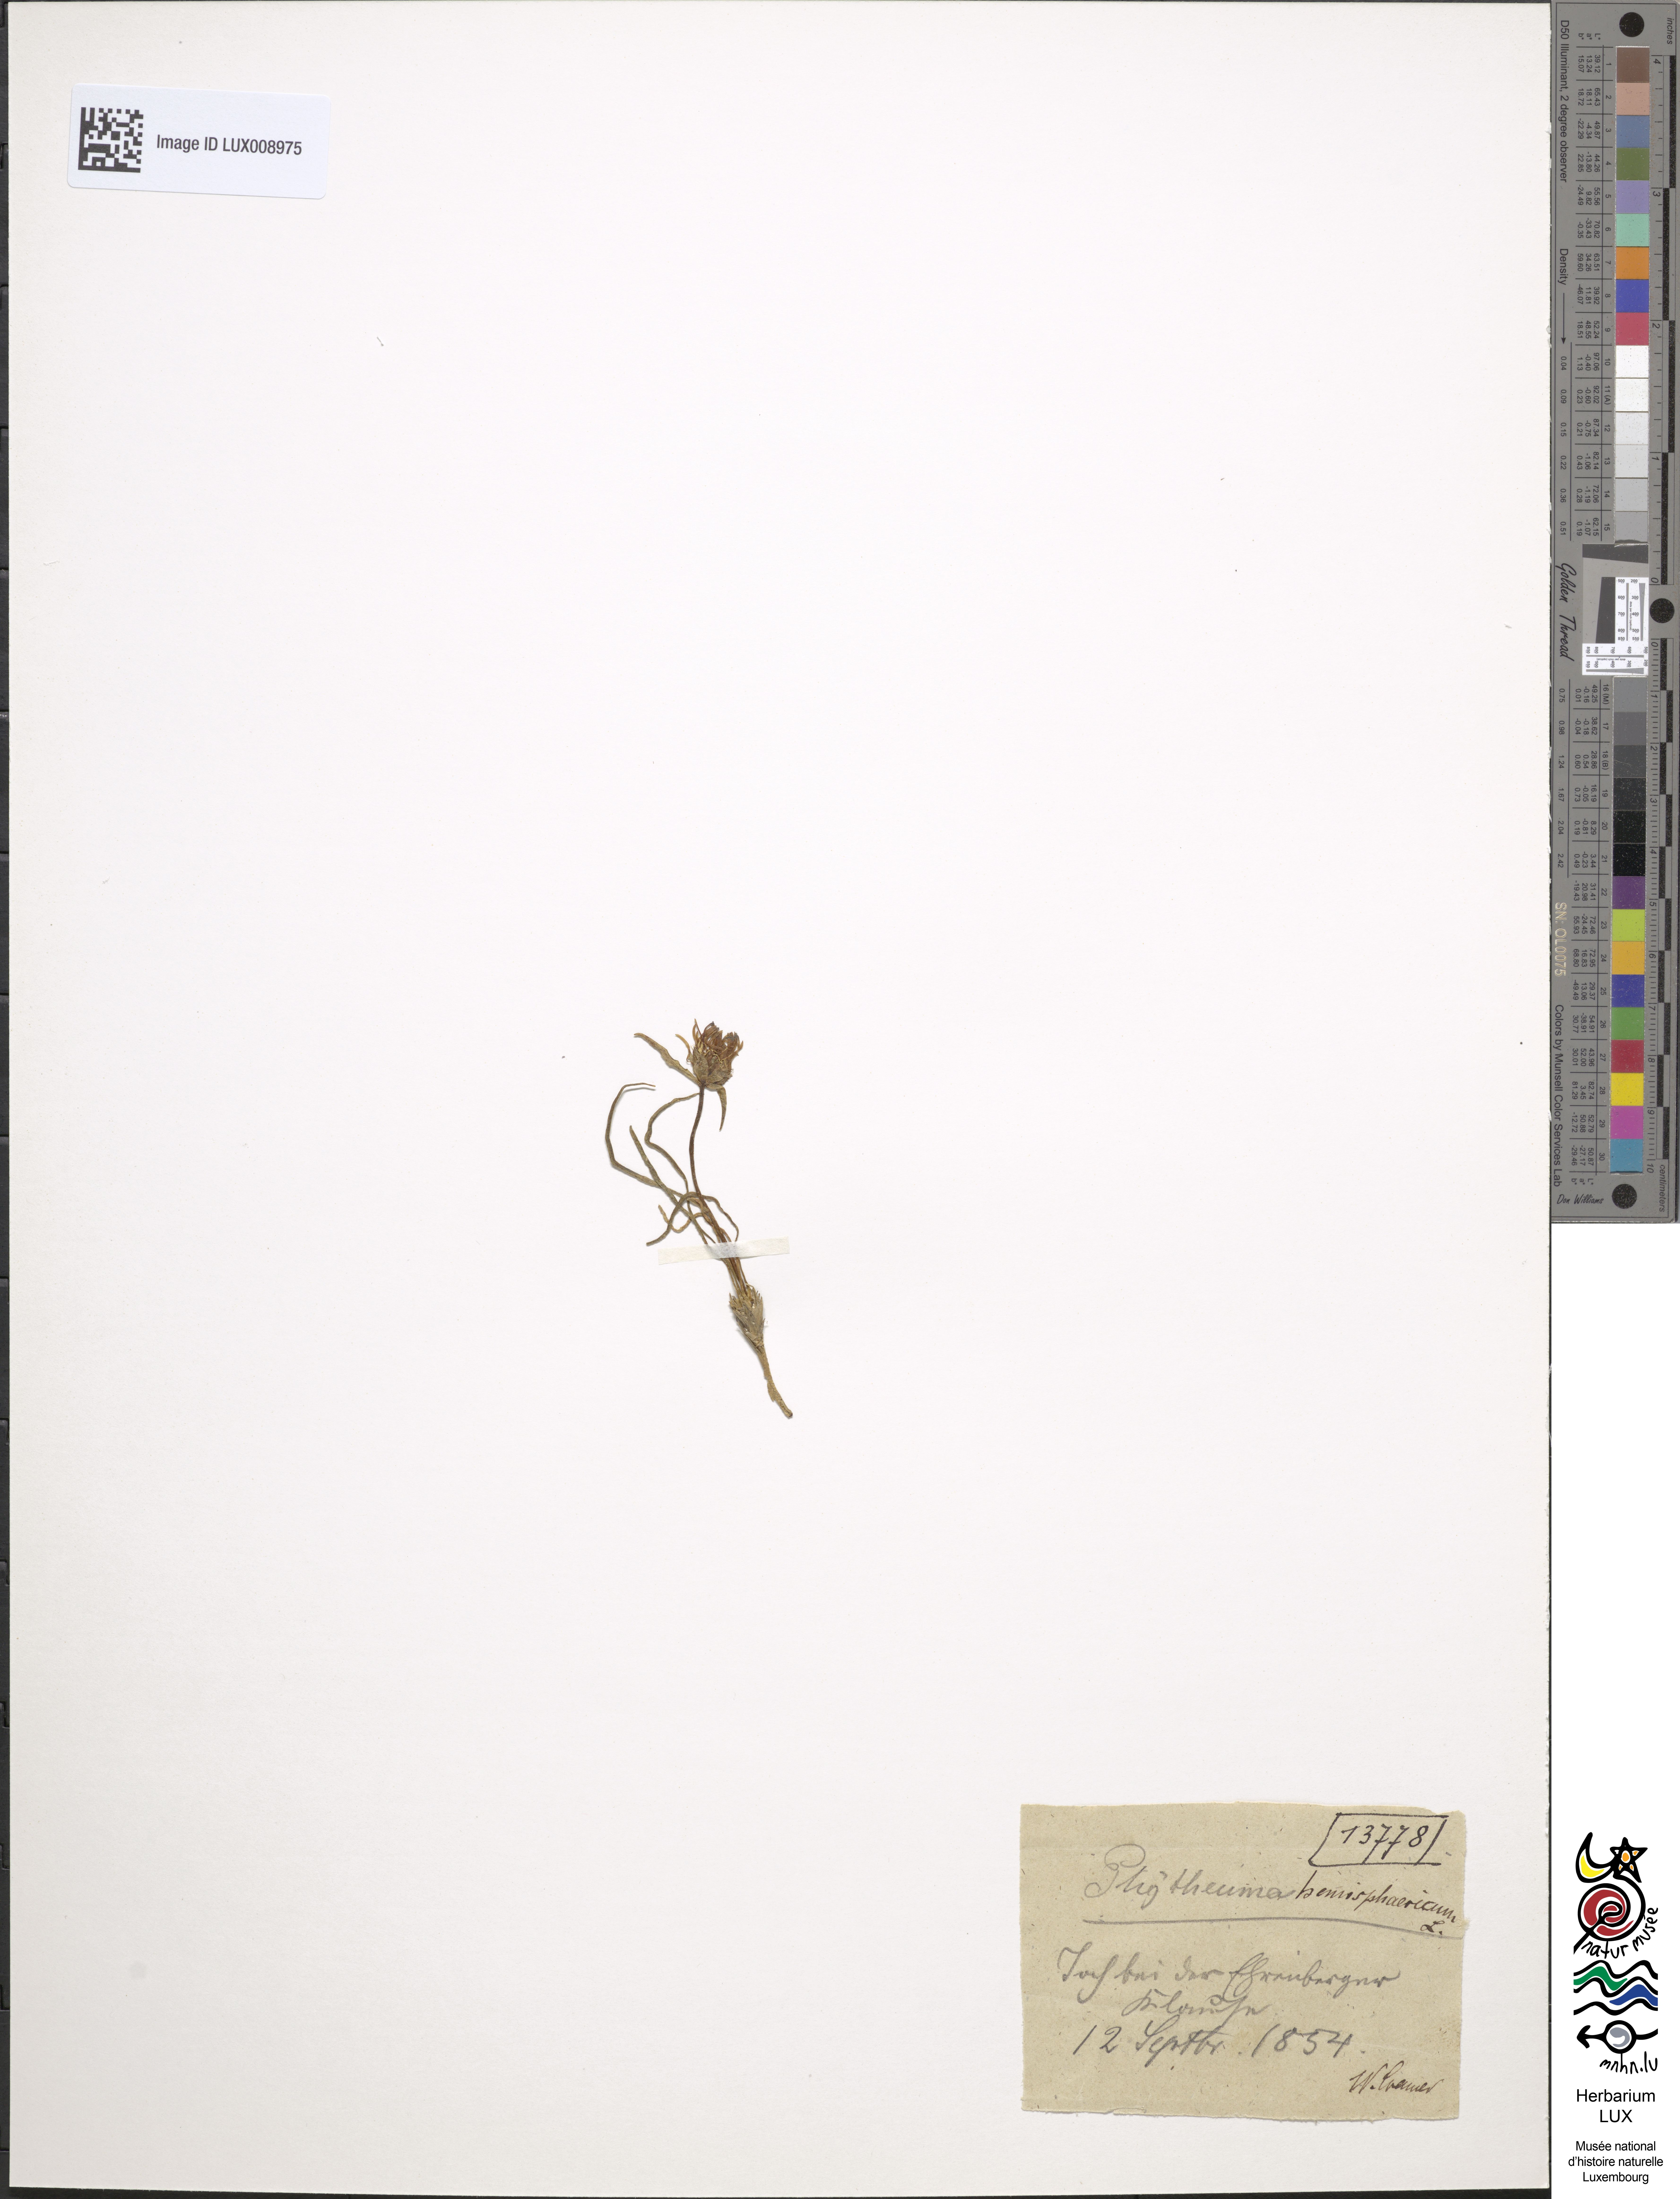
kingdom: Plantae
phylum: Tracheophyta
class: Magnoliopsida
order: Asterales
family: Campanulaceae
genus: Phyteuma
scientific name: Phyteuma hemisphaericum
